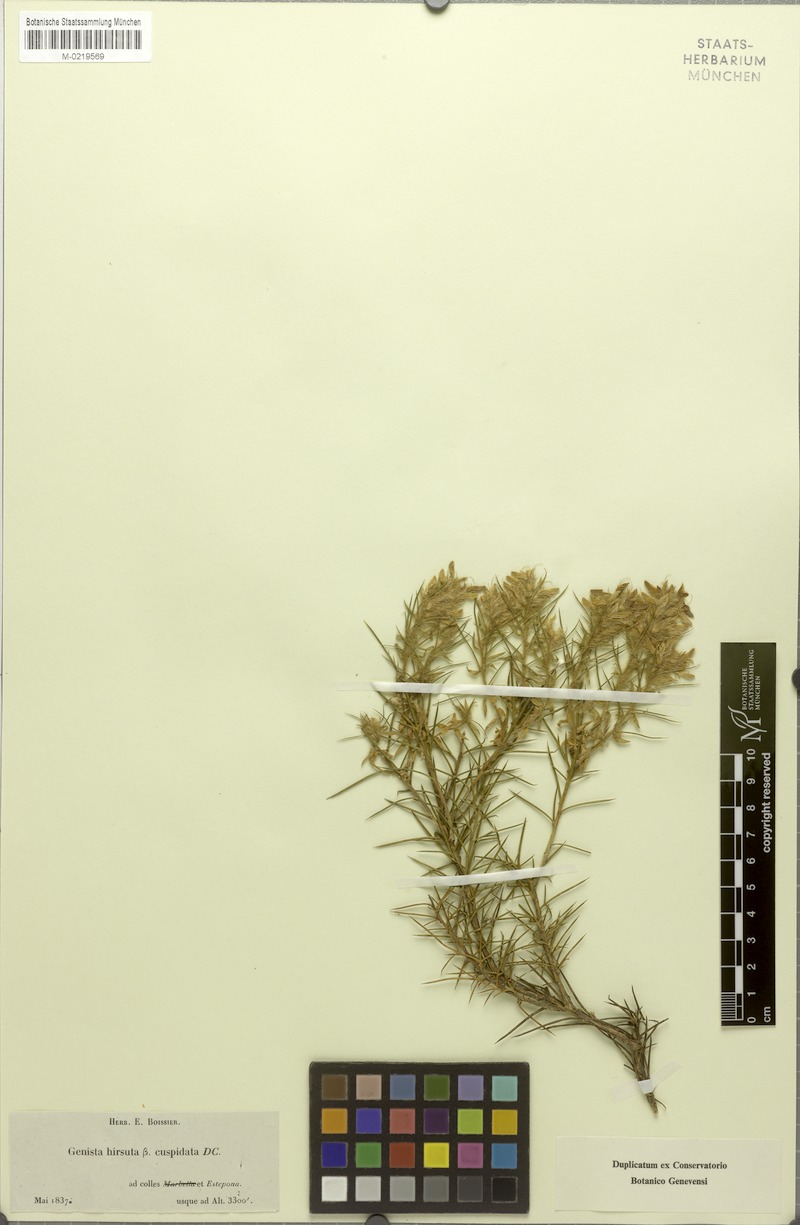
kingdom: Plantae
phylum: Tracheophyta
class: Magnoliopsida
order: Fabales
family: Fabaceae
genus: Genista
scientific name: Genista hirsuta
